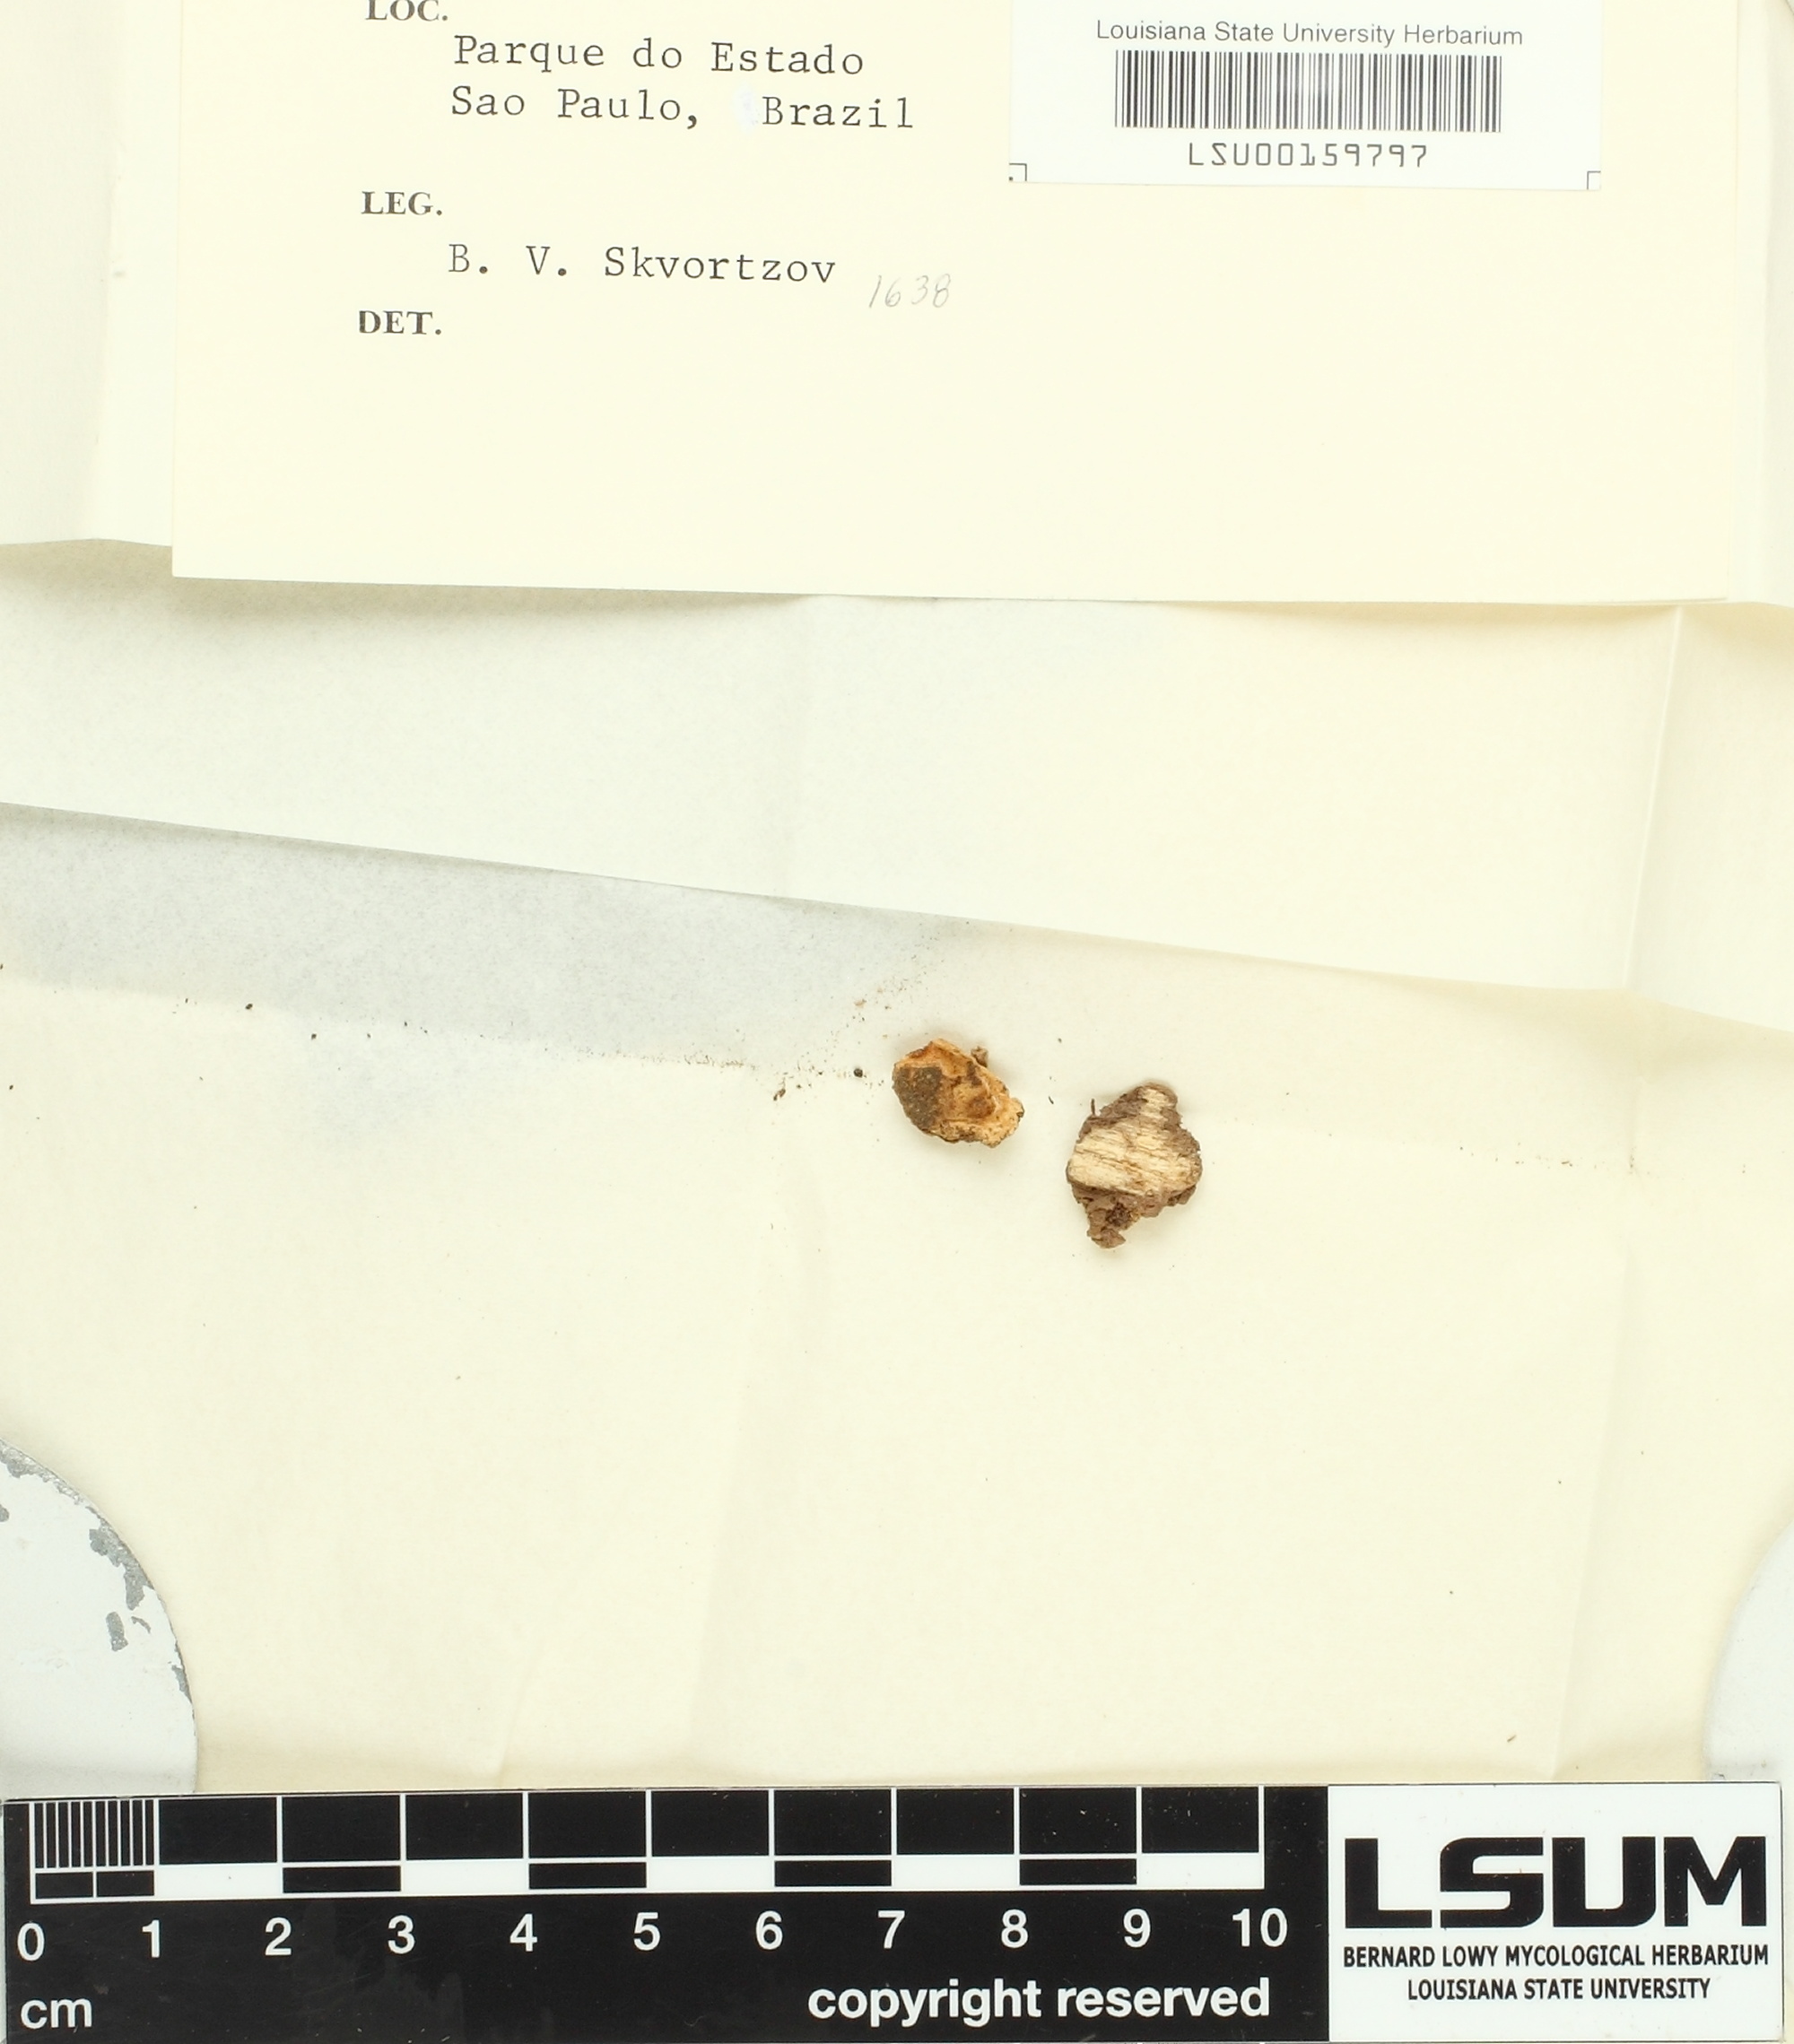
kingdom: Fungi
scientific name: Fungi
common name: Fungi
